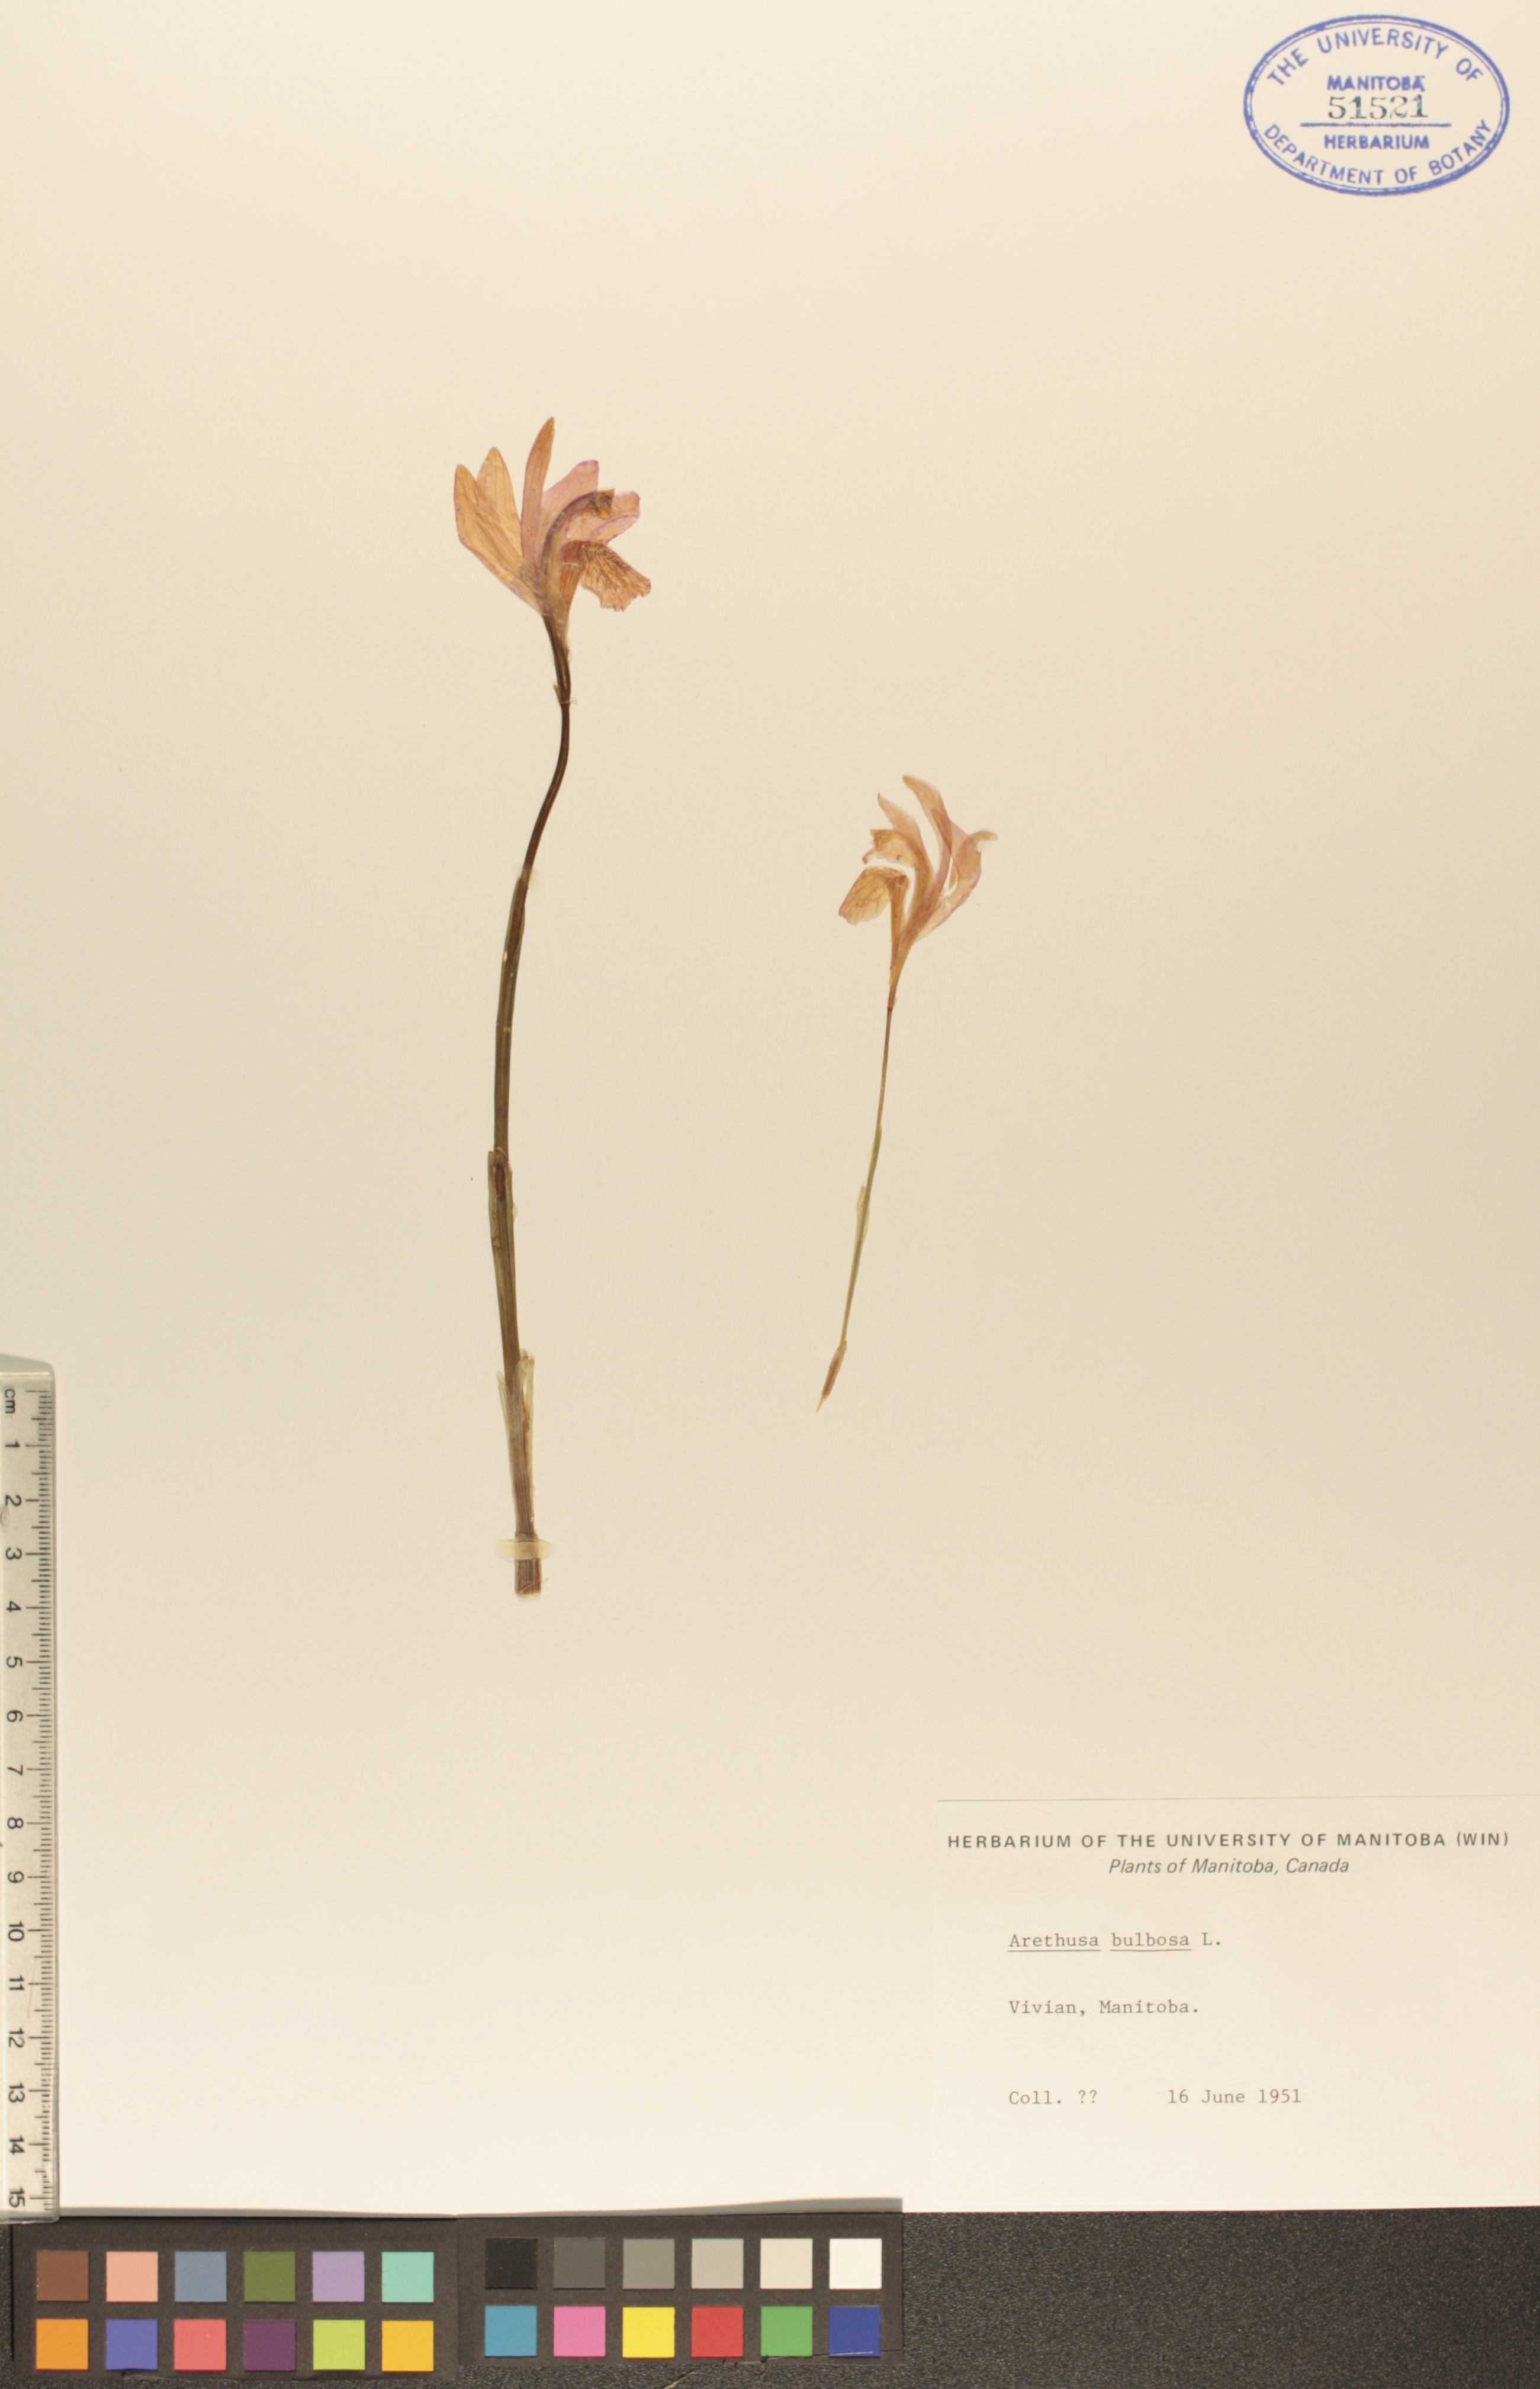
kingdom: Plantae
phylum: Tracheophyta
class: Liliopsida
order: Asparagales
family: Orchidaceae
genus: Arethusa
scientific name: Arethusa bulbosa
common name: Arethusa
